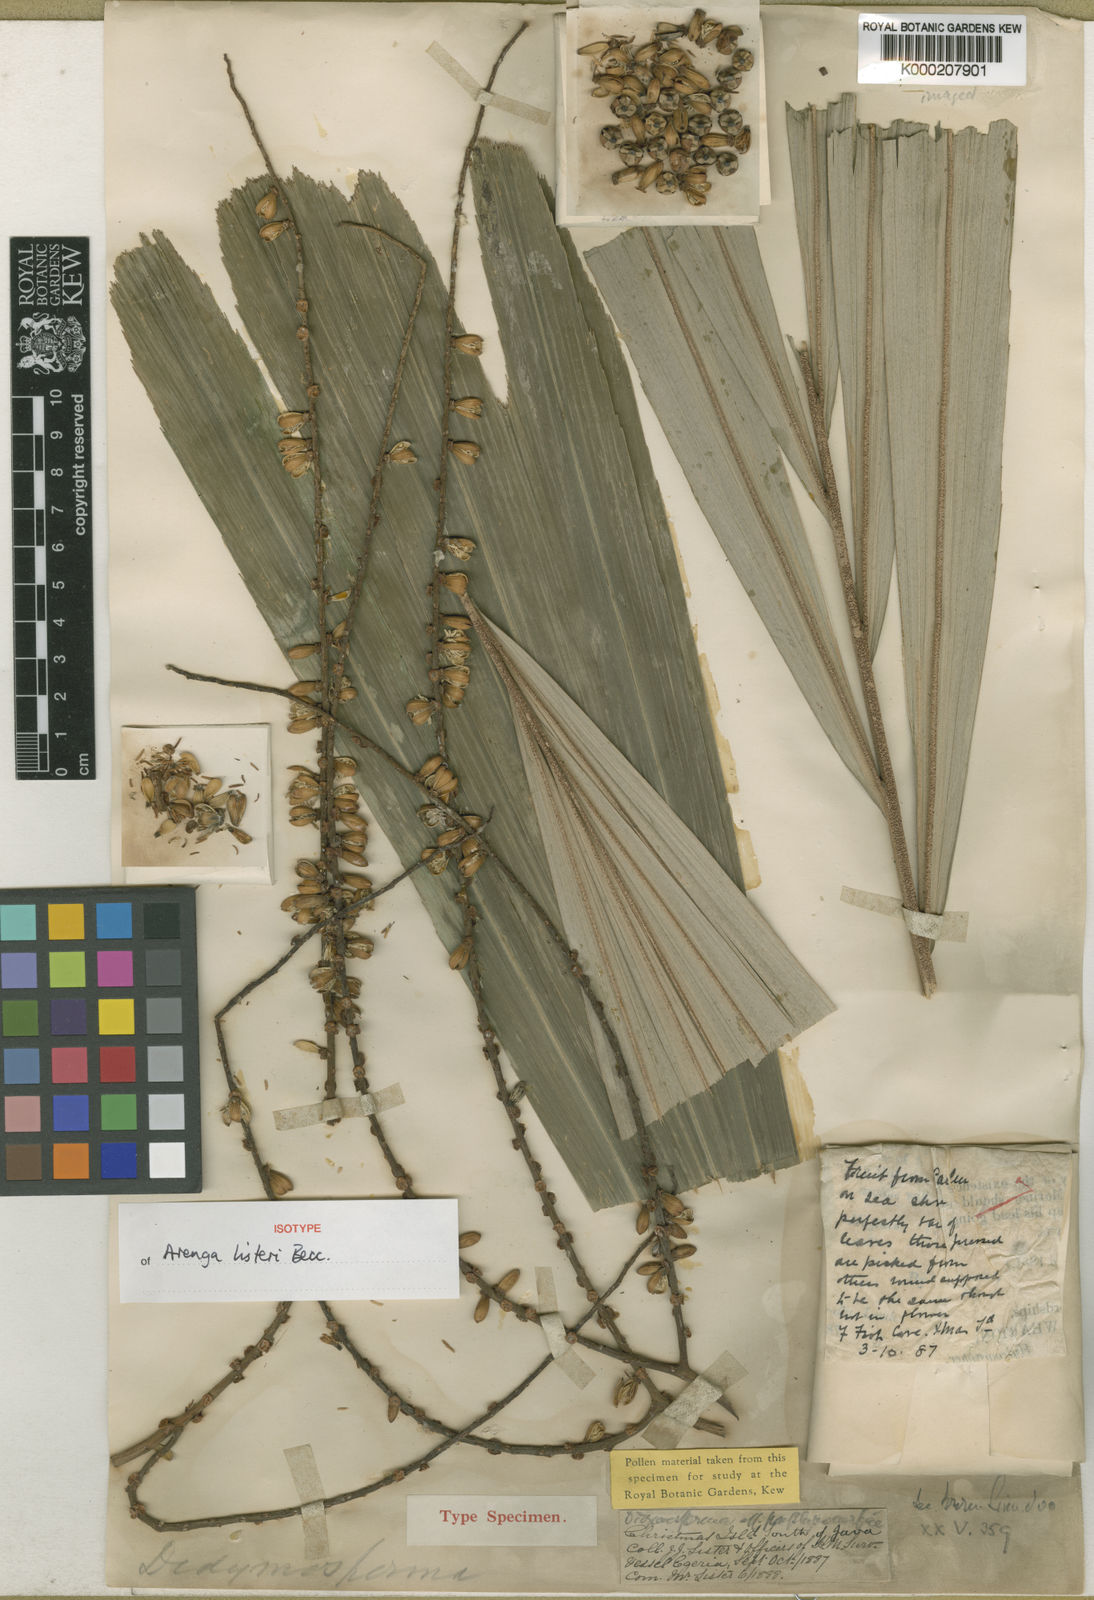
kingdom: Plantae
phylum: Tracheophyta
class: Liliopsida
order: Arecales
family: Arecaceae
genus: Arenga
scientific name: Arenga listeri
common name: Lister's palm
